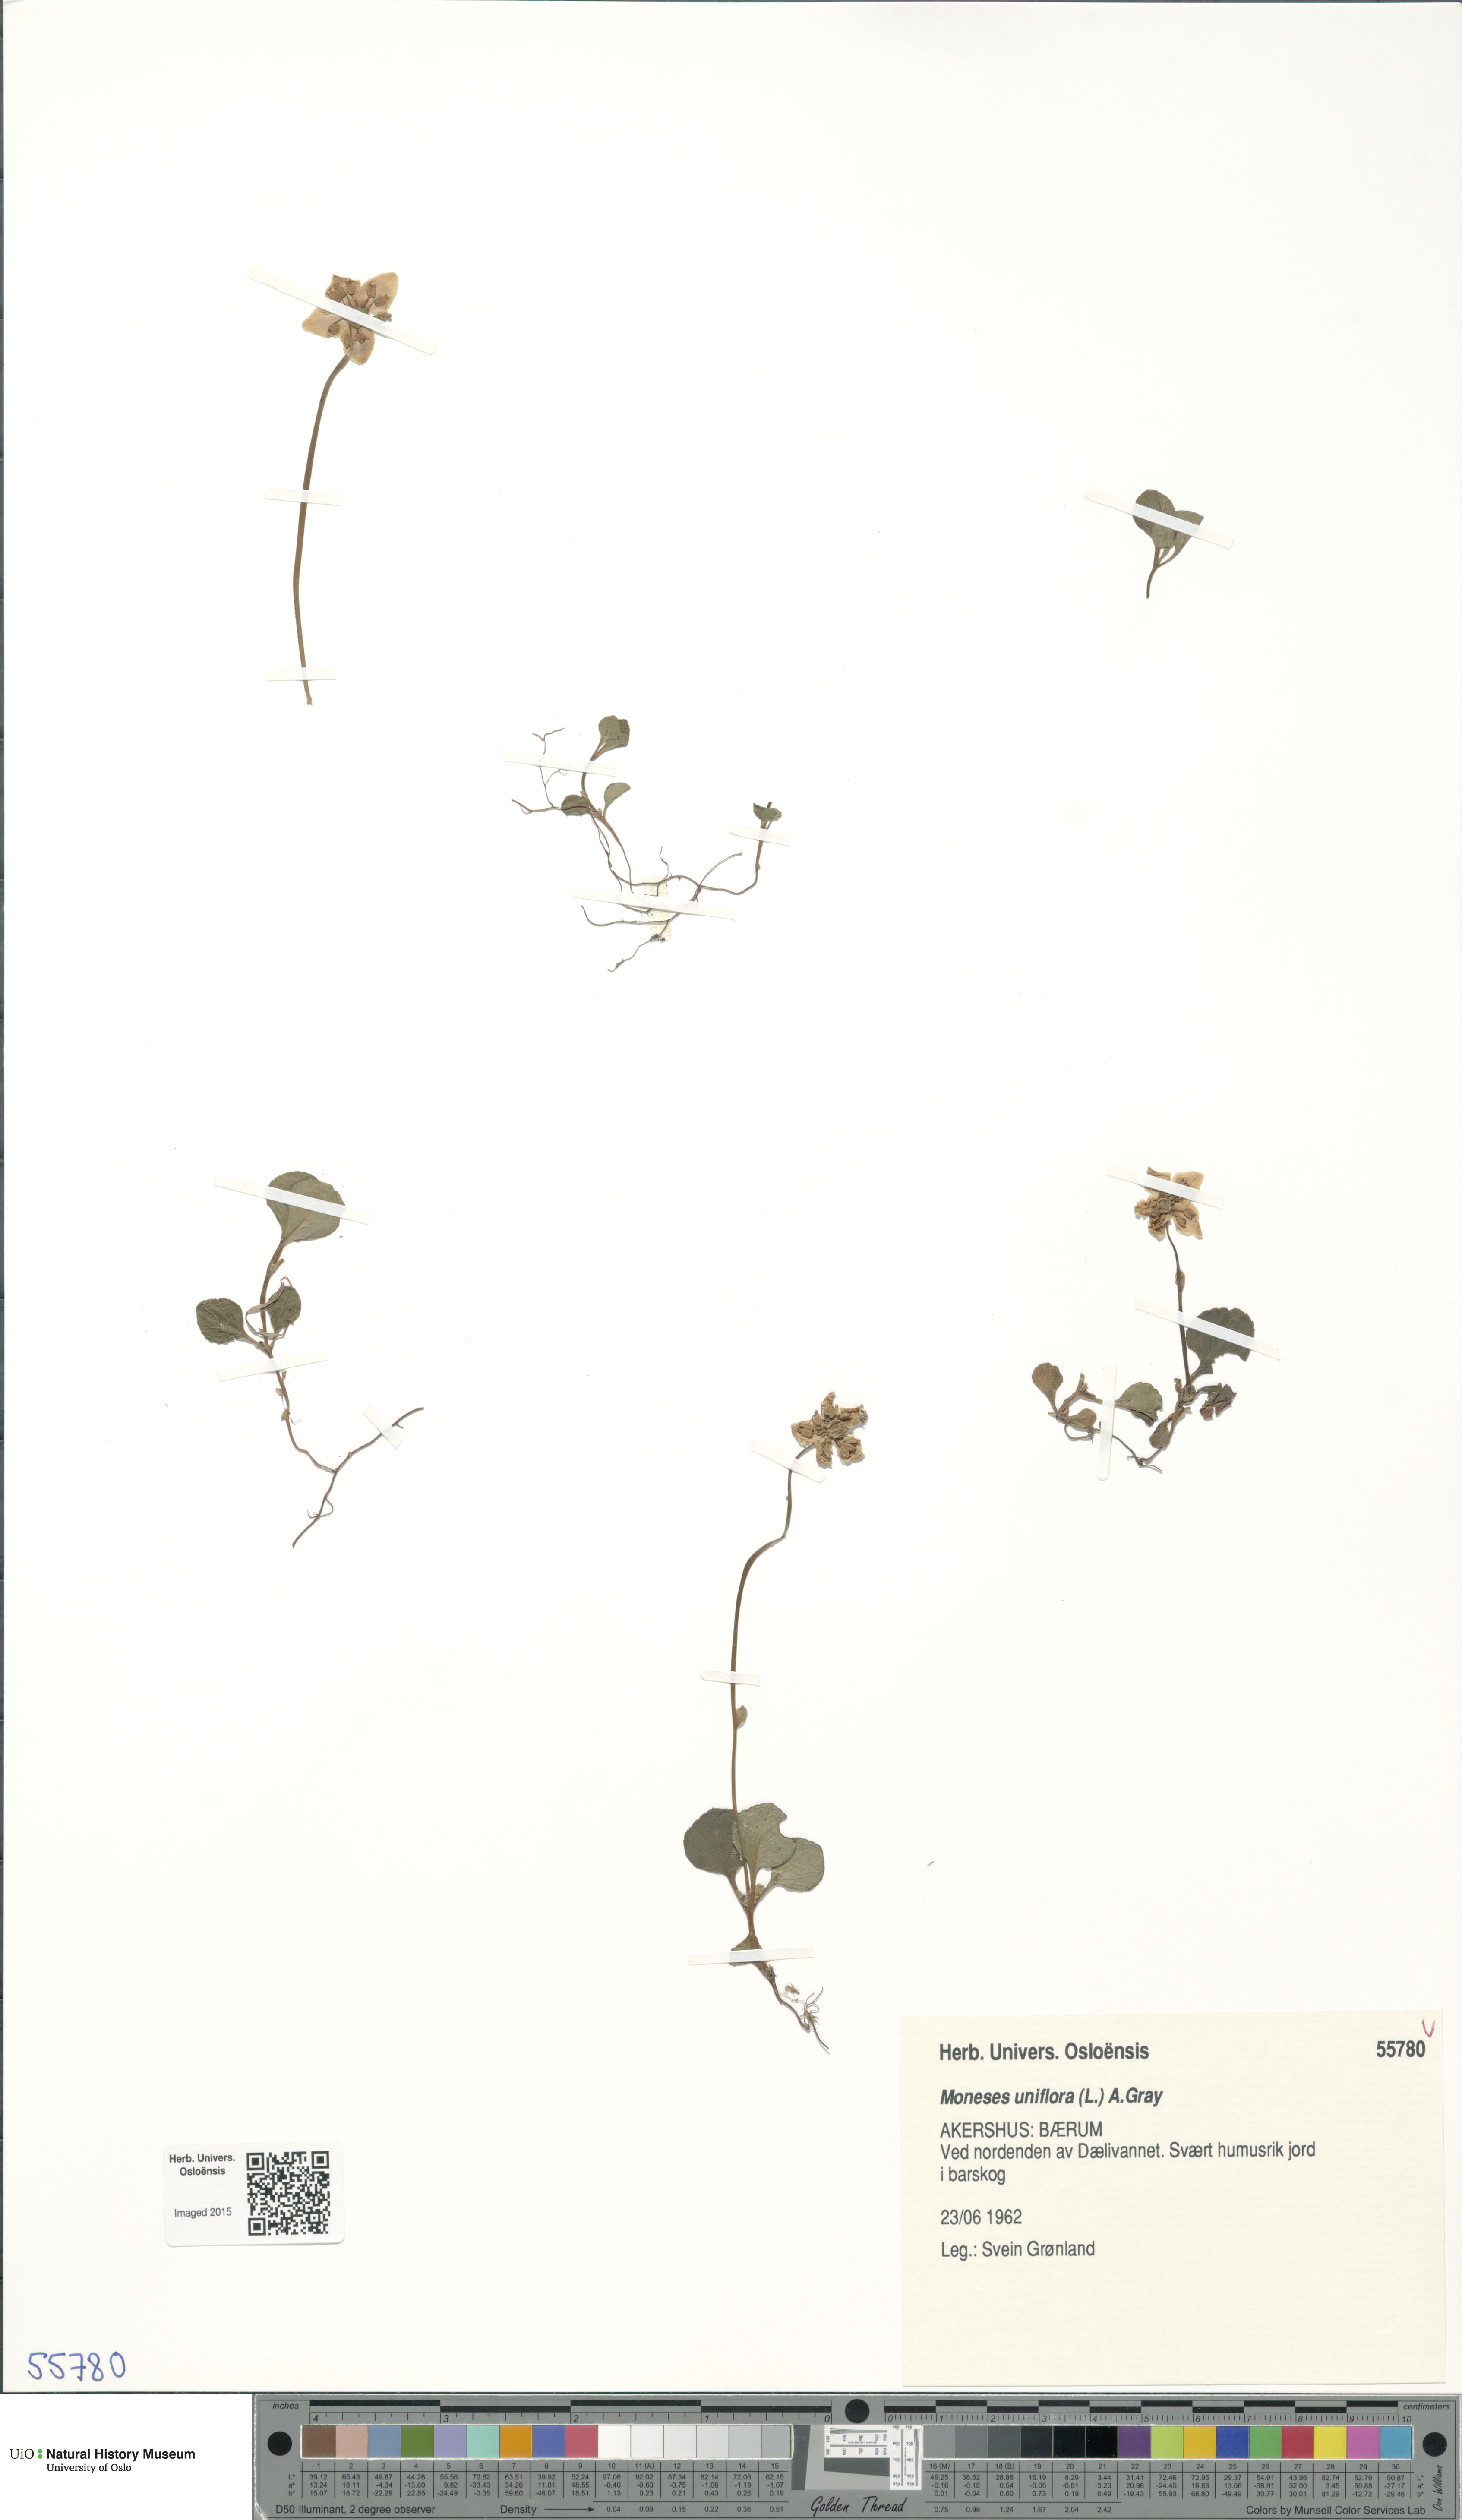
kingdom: Plantae
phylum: Tracheophyta
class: Magnoliopsida
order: Ericales
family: Ericaceae
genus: Moneses
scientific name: Moneses uniflora
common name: One-flowered wintergreen
